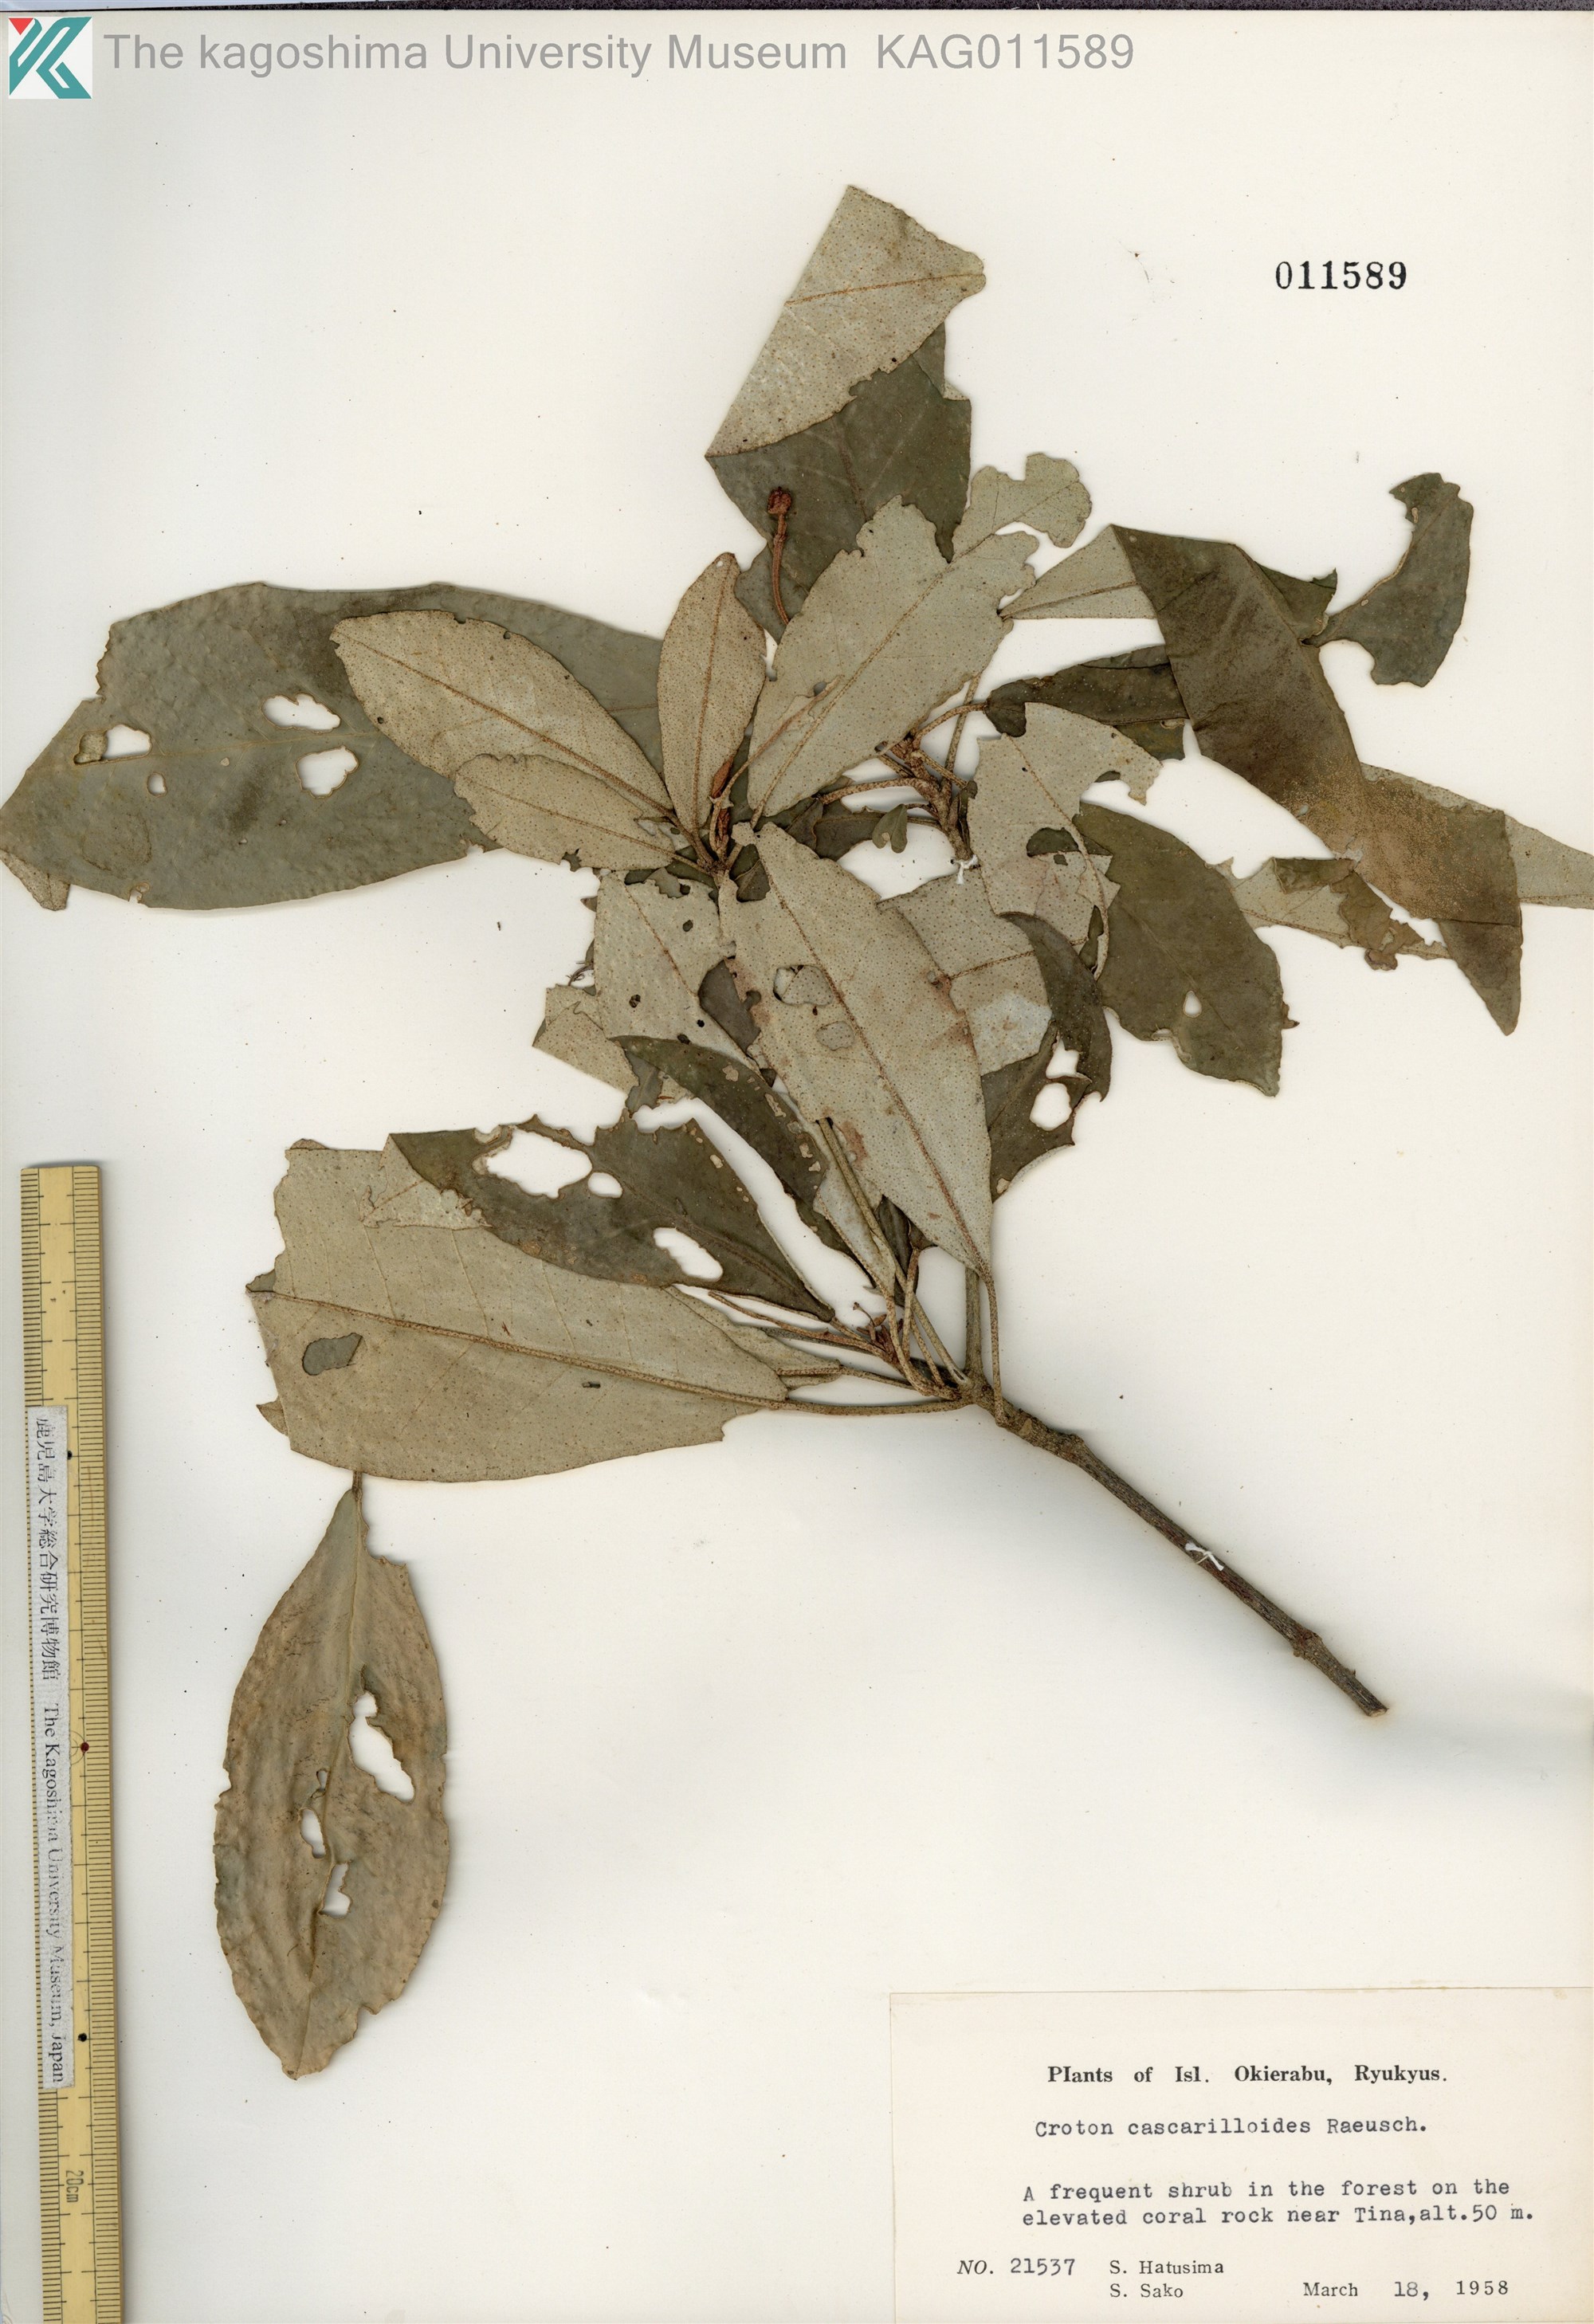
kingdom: Plantae
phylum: Tracheophyta
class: Magnoliopsida
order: Malpighiales
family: Euphorbiaceae
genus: Croton
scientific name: Croton cascarilloides
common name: グミモドキ
